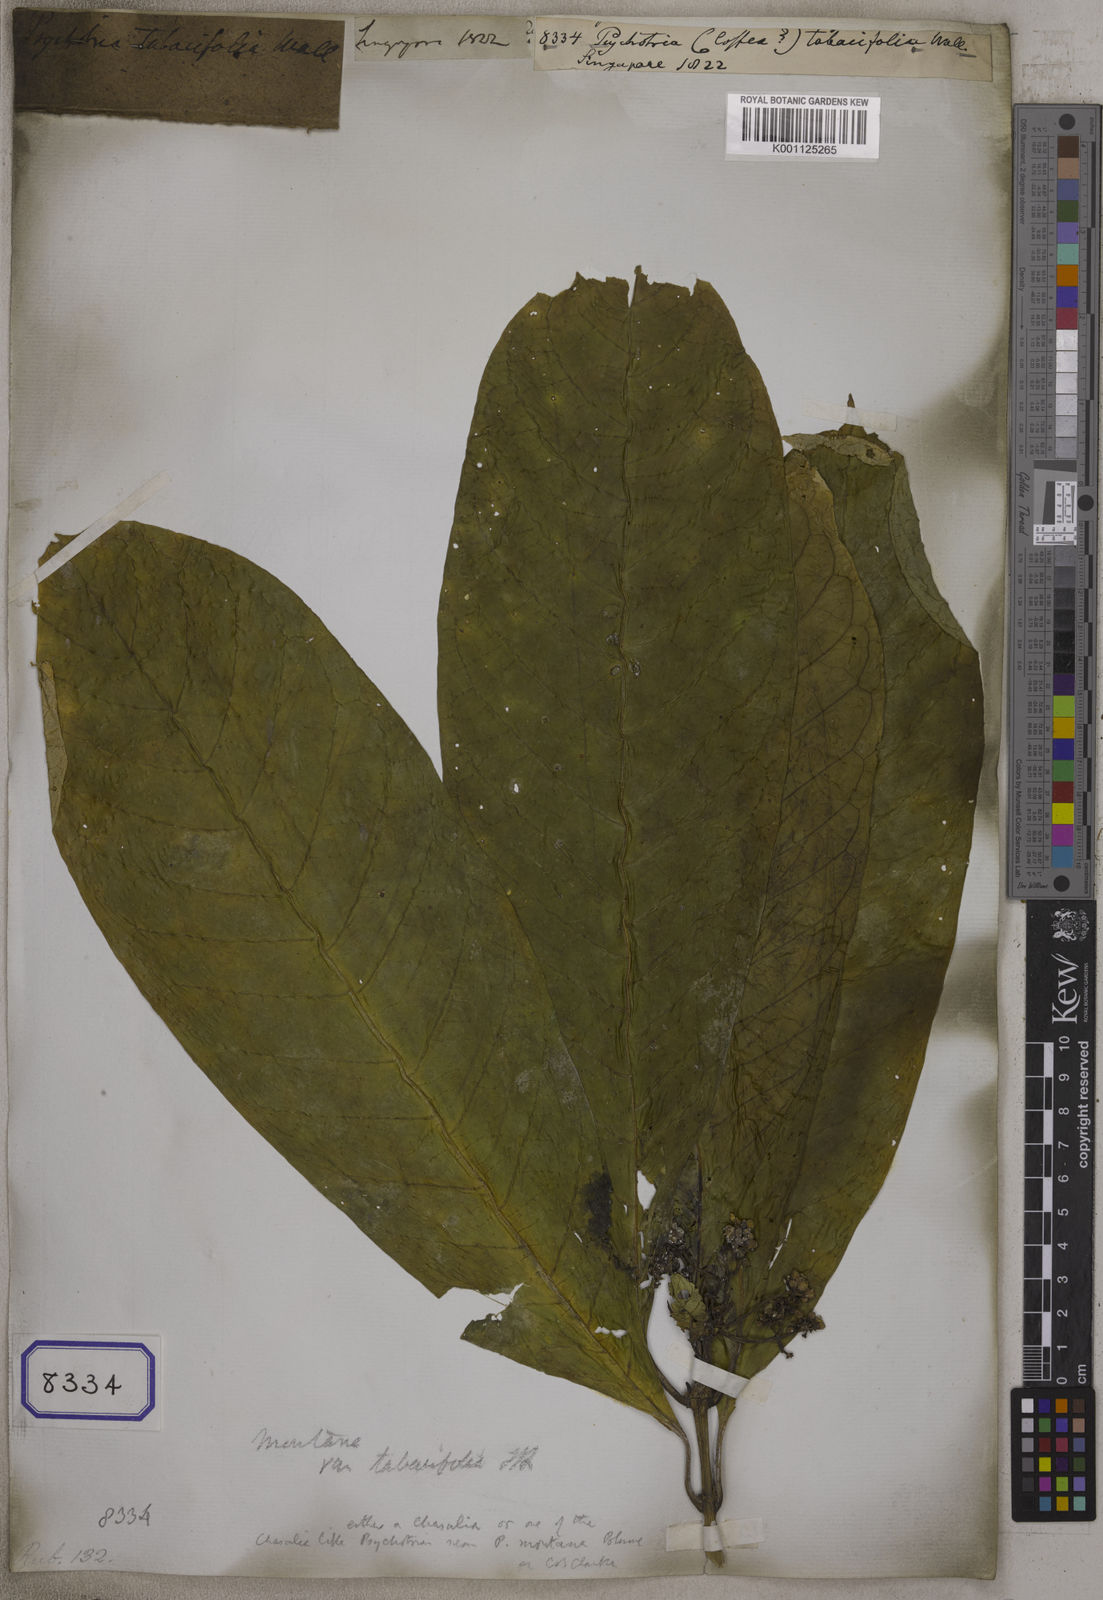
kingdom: Plantae
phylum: Tracheophyta
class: Magnoliopsida
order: Gentianales
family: Rubiaceae
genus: Eumachia
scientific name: Eumachia montana
